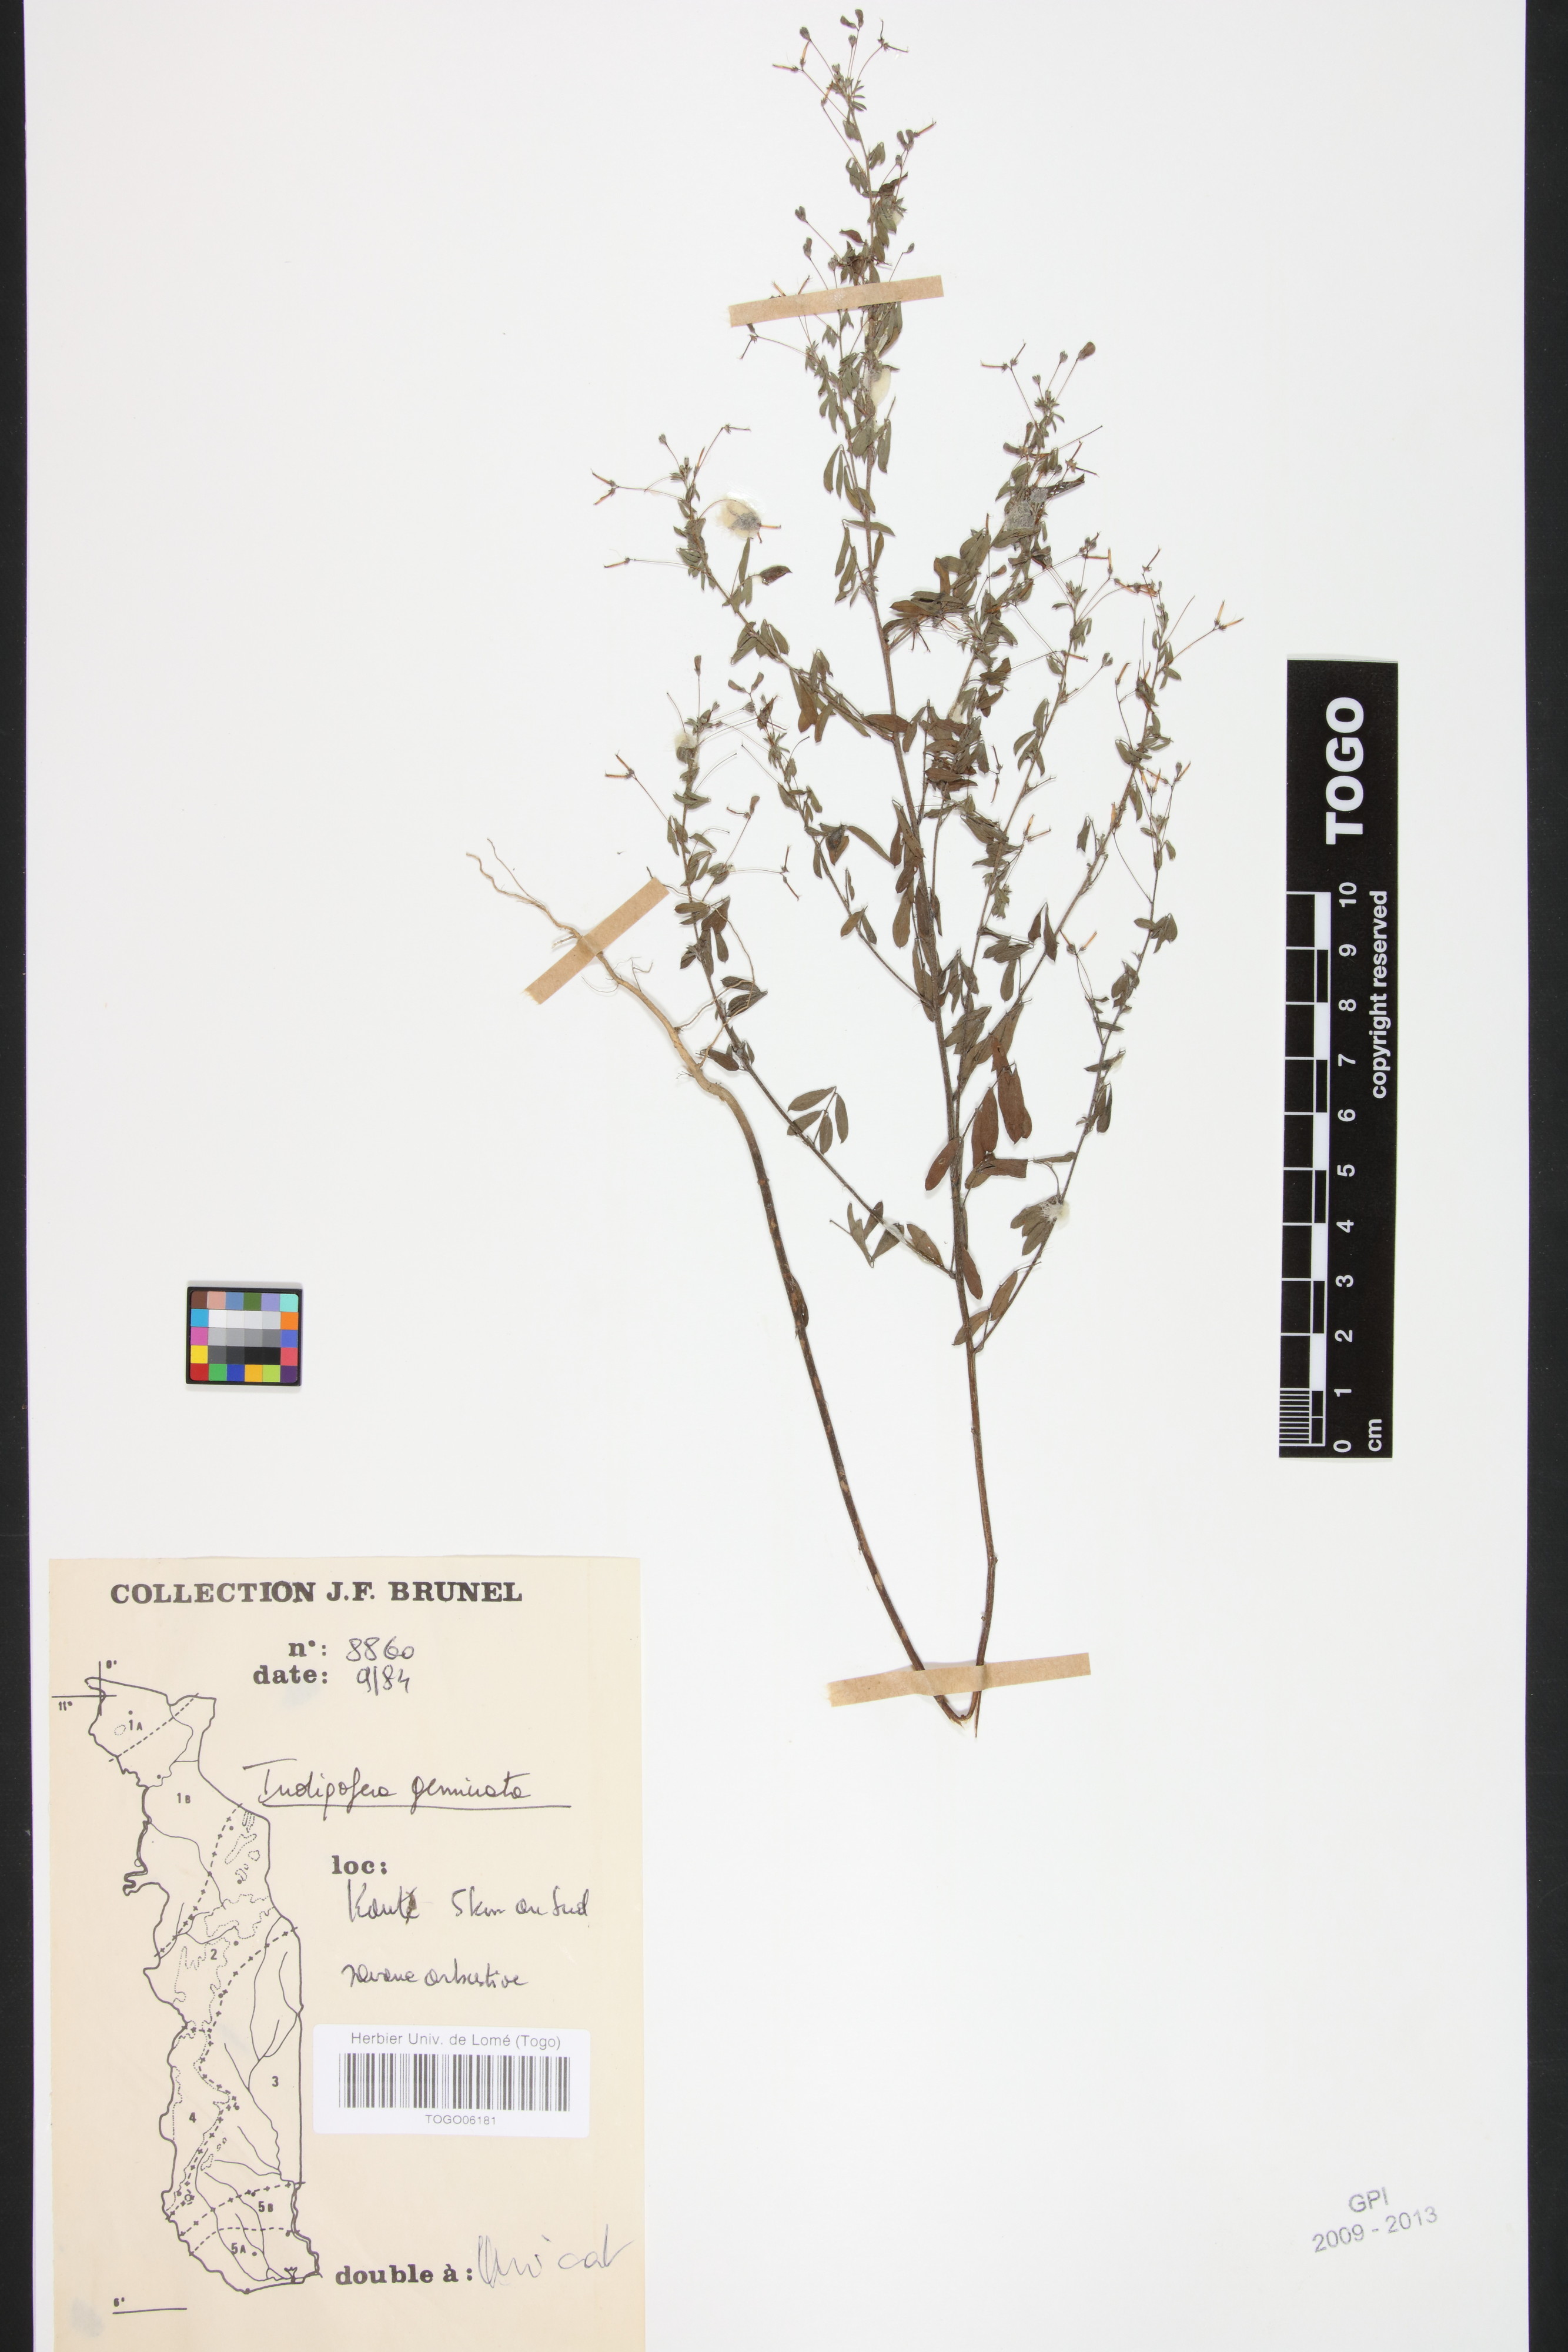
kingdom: Plantae
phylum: Tracheophyta
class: Magnoliopsida
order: Fabales
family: Fabaceae
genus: Indigofera
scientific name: Indigofera geminata
